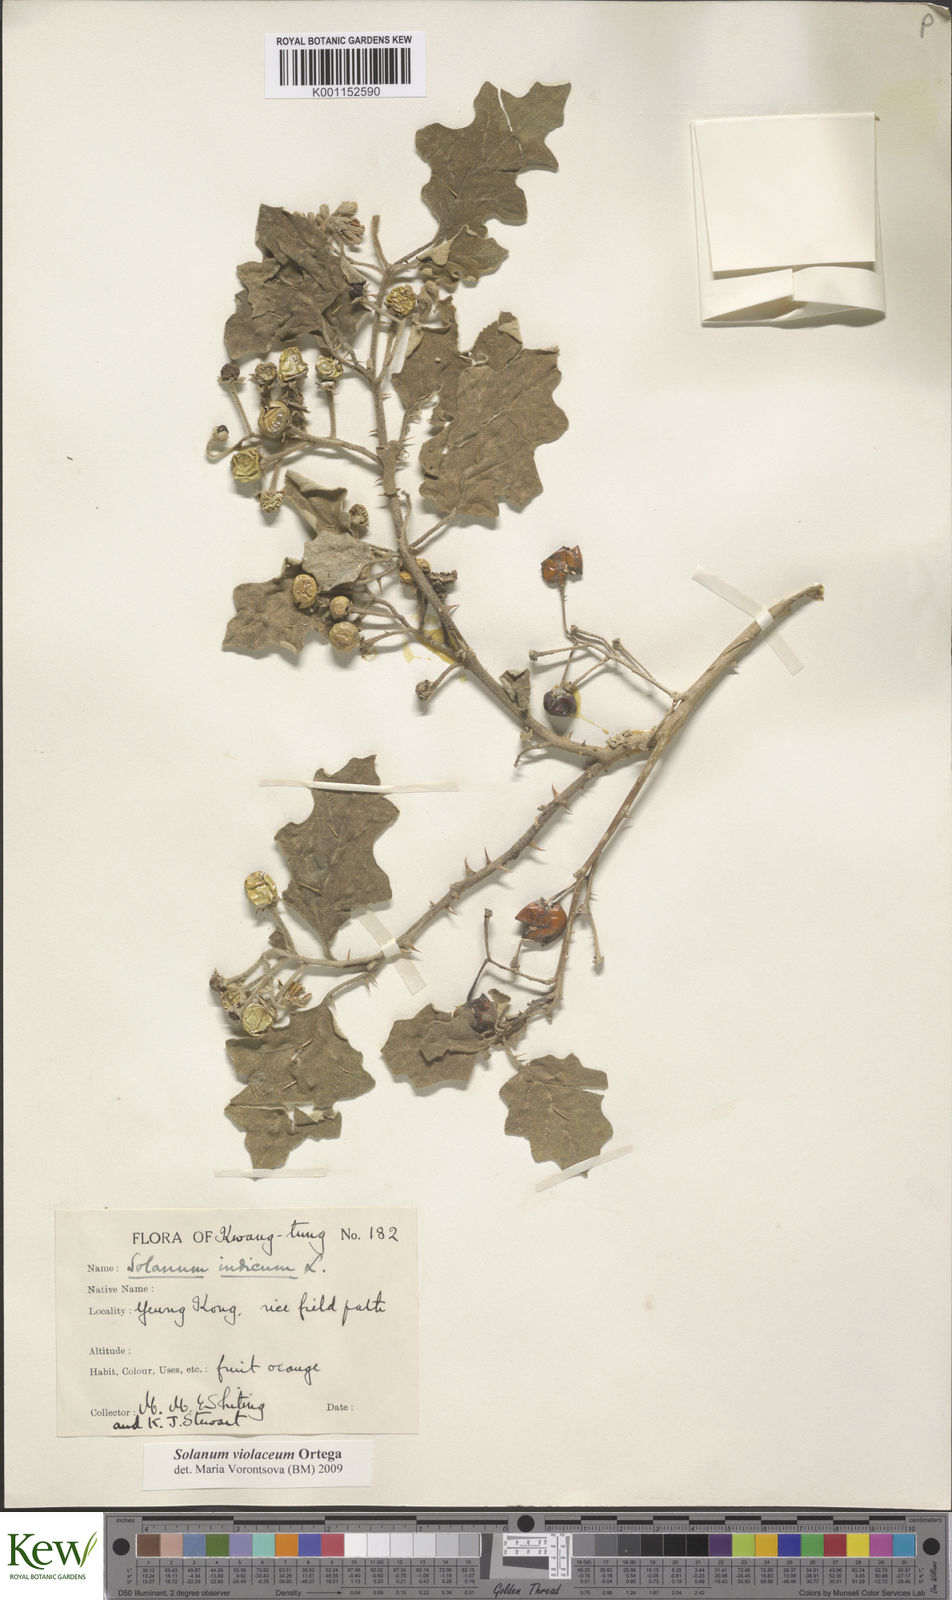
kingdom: Plantae
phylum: Tracheophyta
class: Magnoliopsida
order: Solanales
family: Solanaceae
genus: Solanum
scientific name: Solanum violaceum
